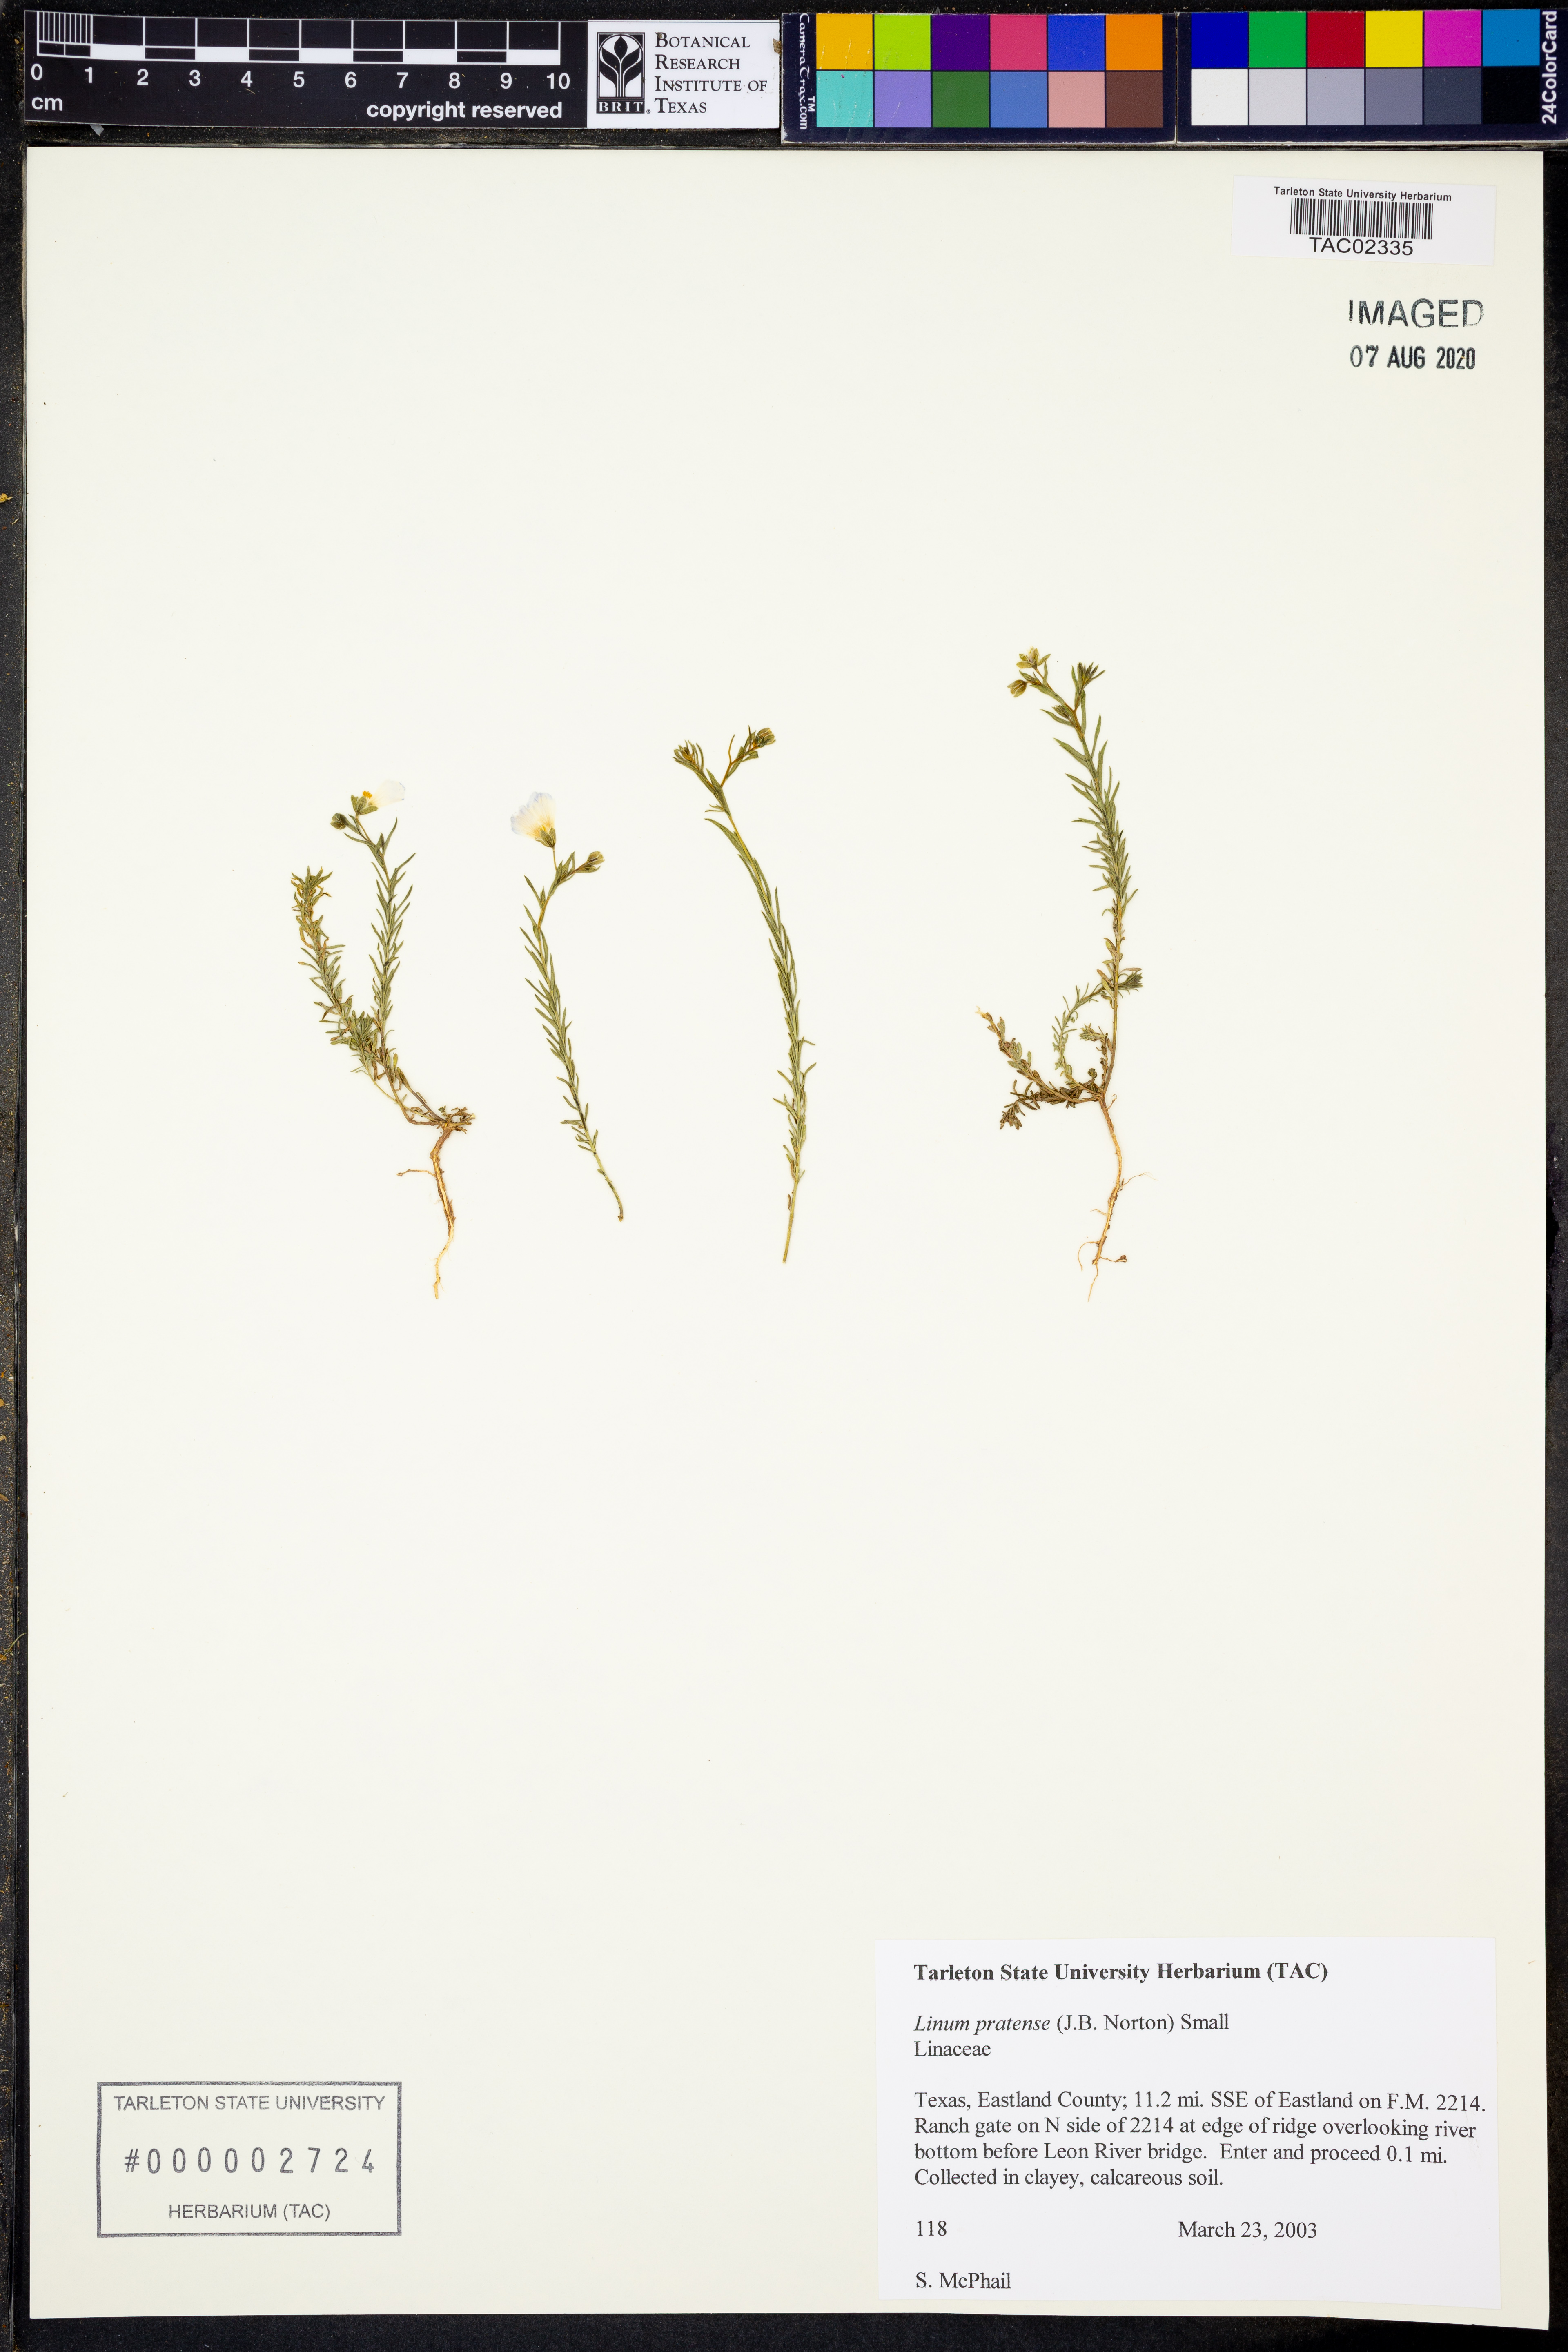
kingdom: Plantae
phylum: Tracheophyta
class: Magnoliopsida
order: Malpighiales
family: Linaceae
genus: Linum
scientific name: Linum pratense
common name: Norton's flax
